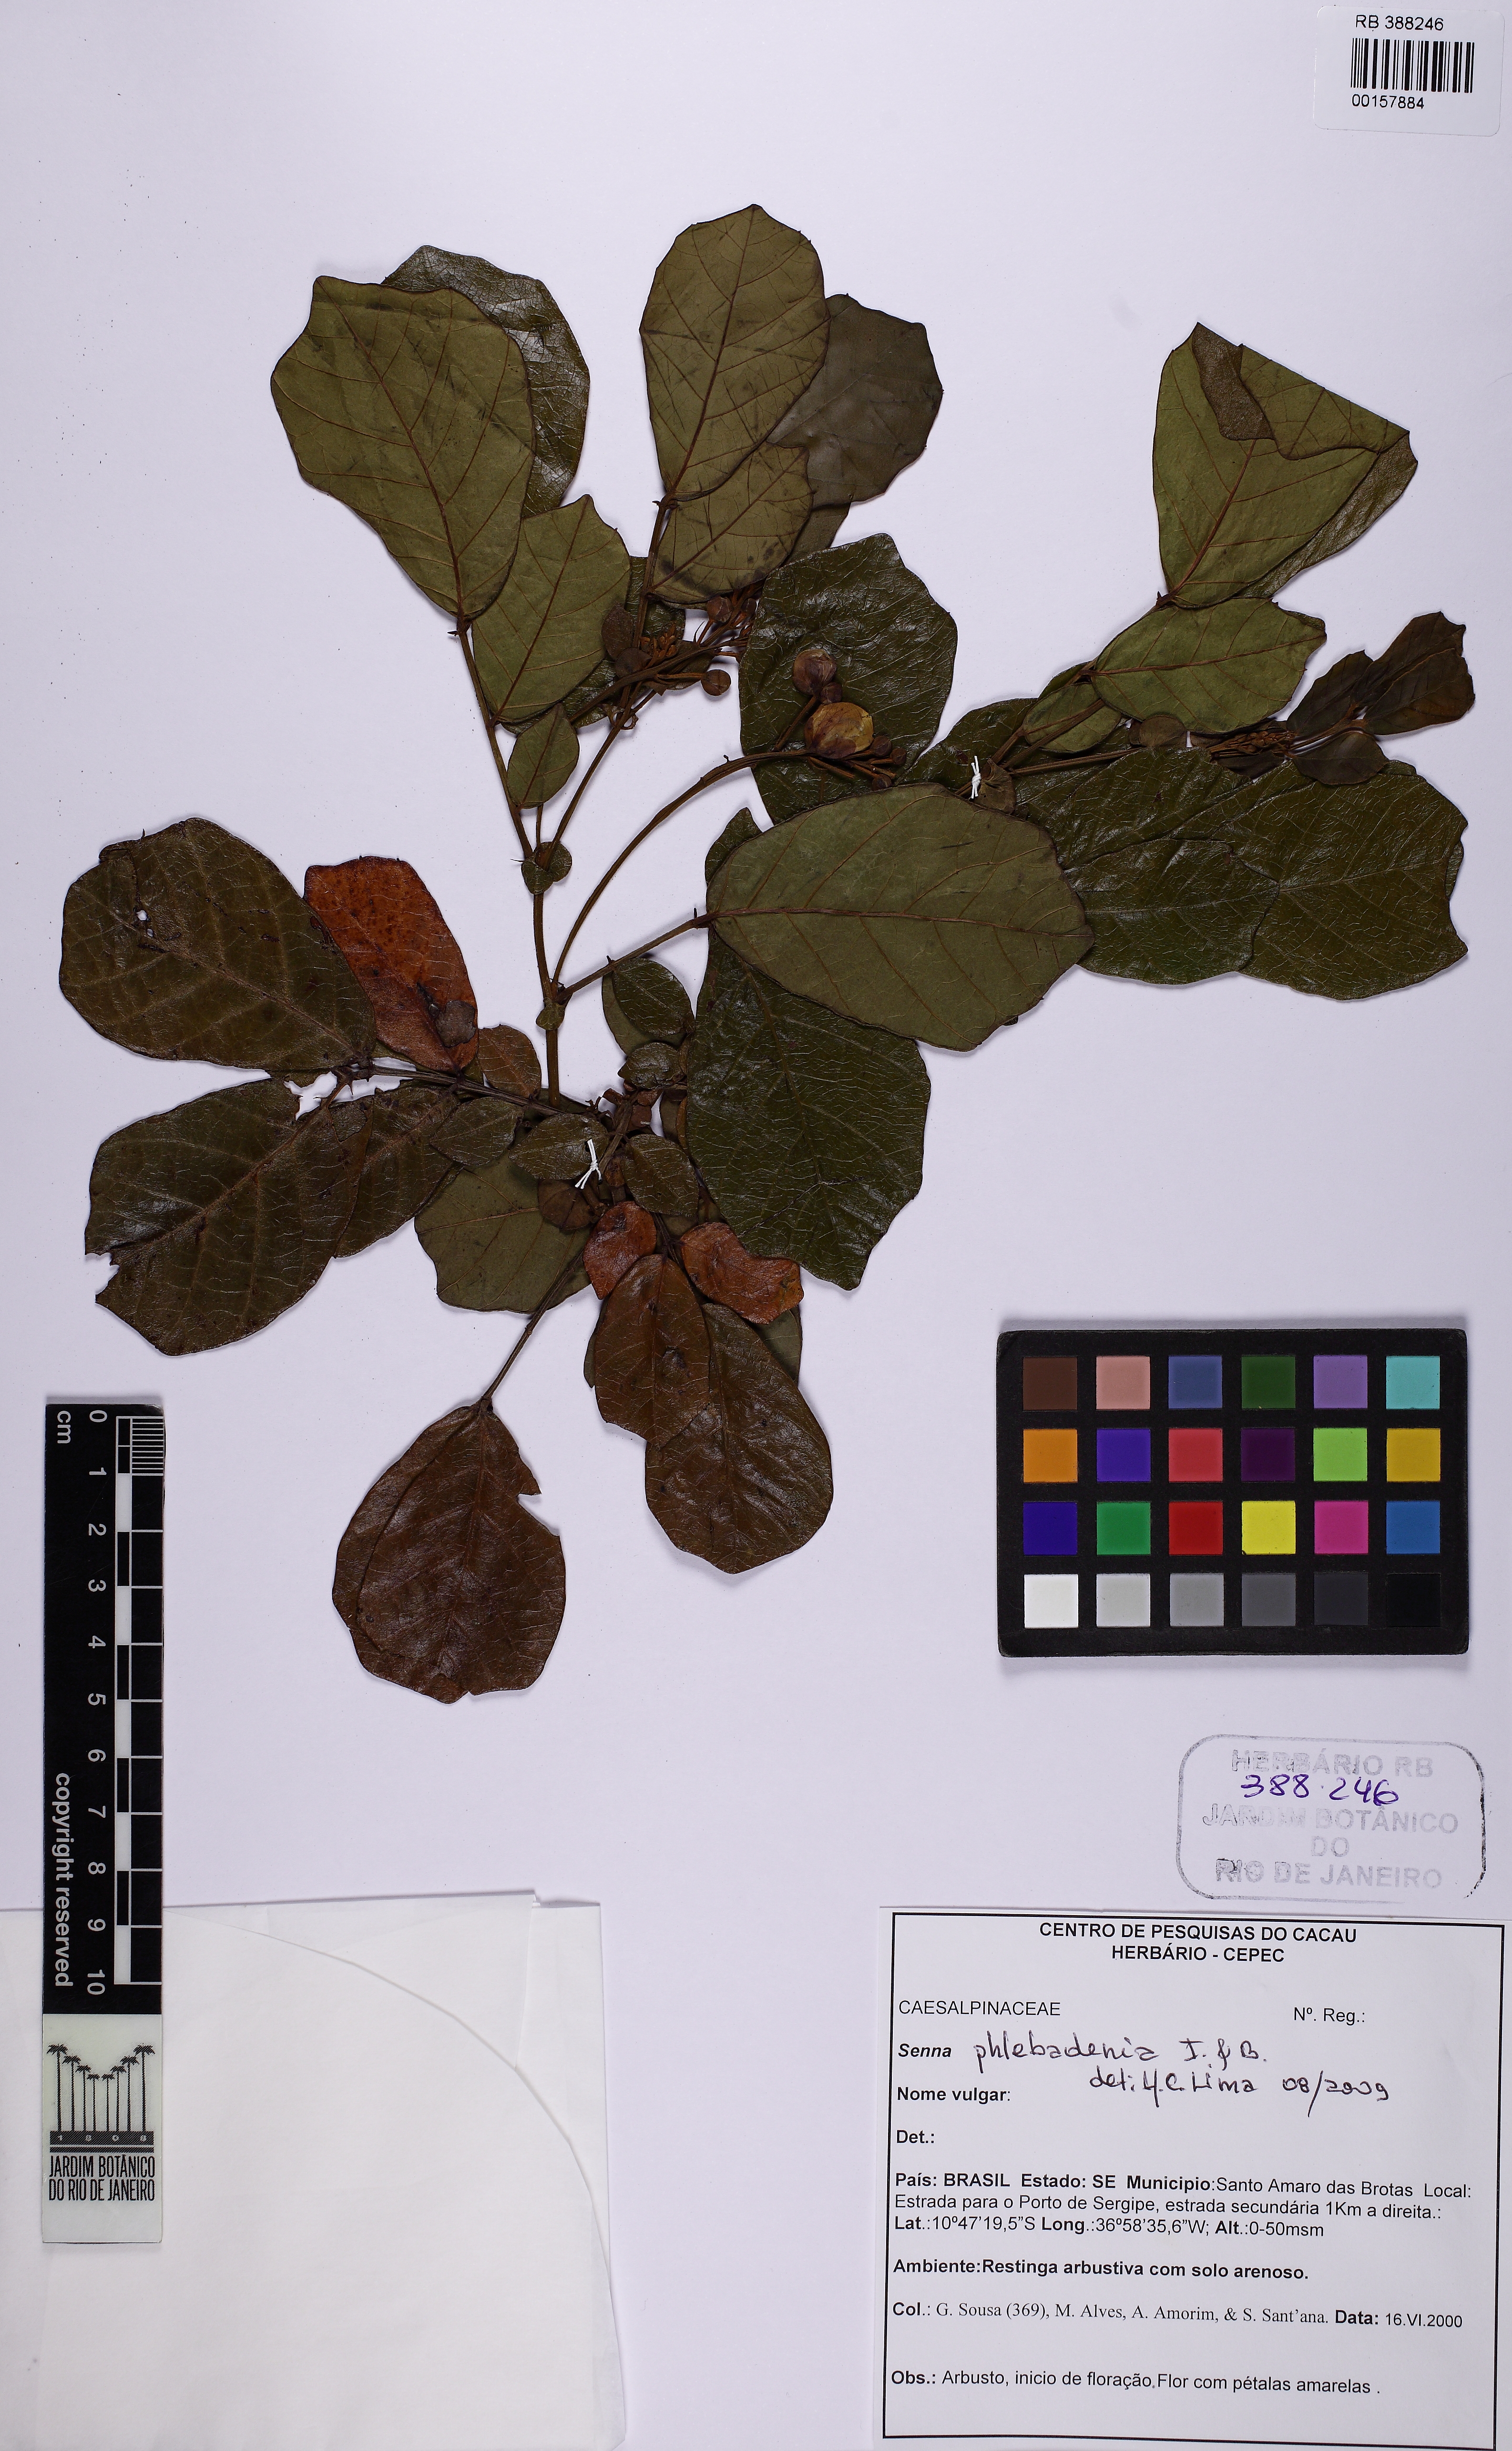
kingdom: Plantae
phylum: Tracheophyta
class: Magnoliopsida
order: Fabales
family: Fabaceae
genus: Senna
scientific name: Senna
